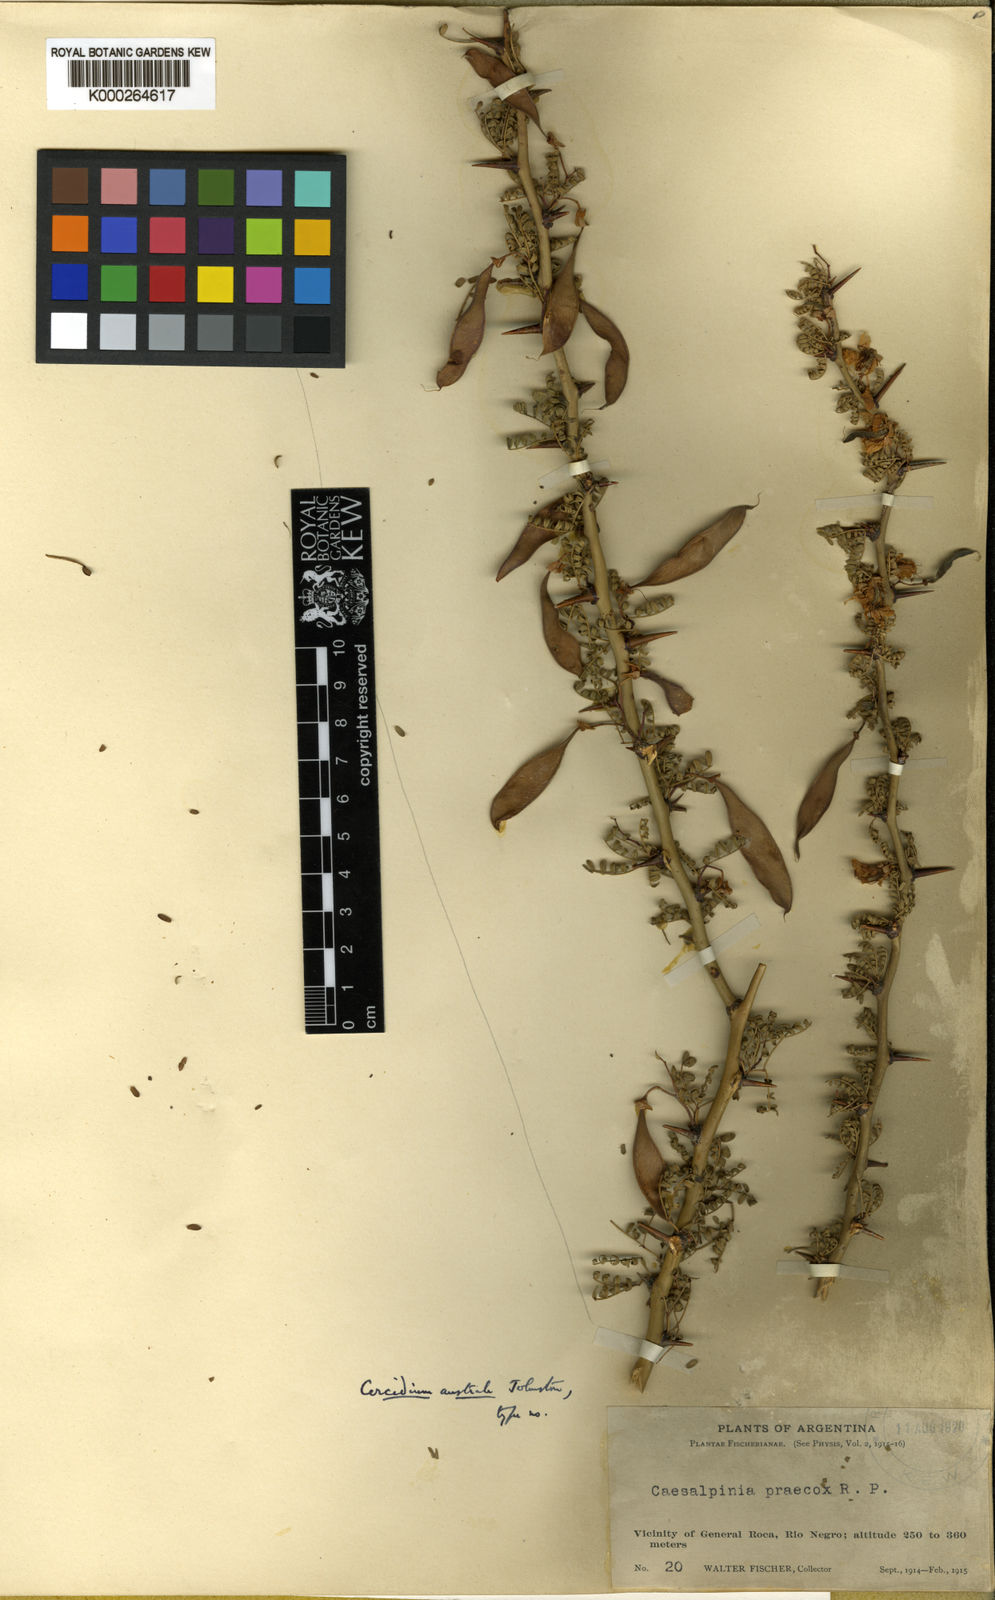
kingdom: Plantae
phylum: Tracheophyta
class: Magnoliopsida
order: Fabales
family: Fabaceae
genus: Parkinsonia
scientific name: Parkinsonia glauca
